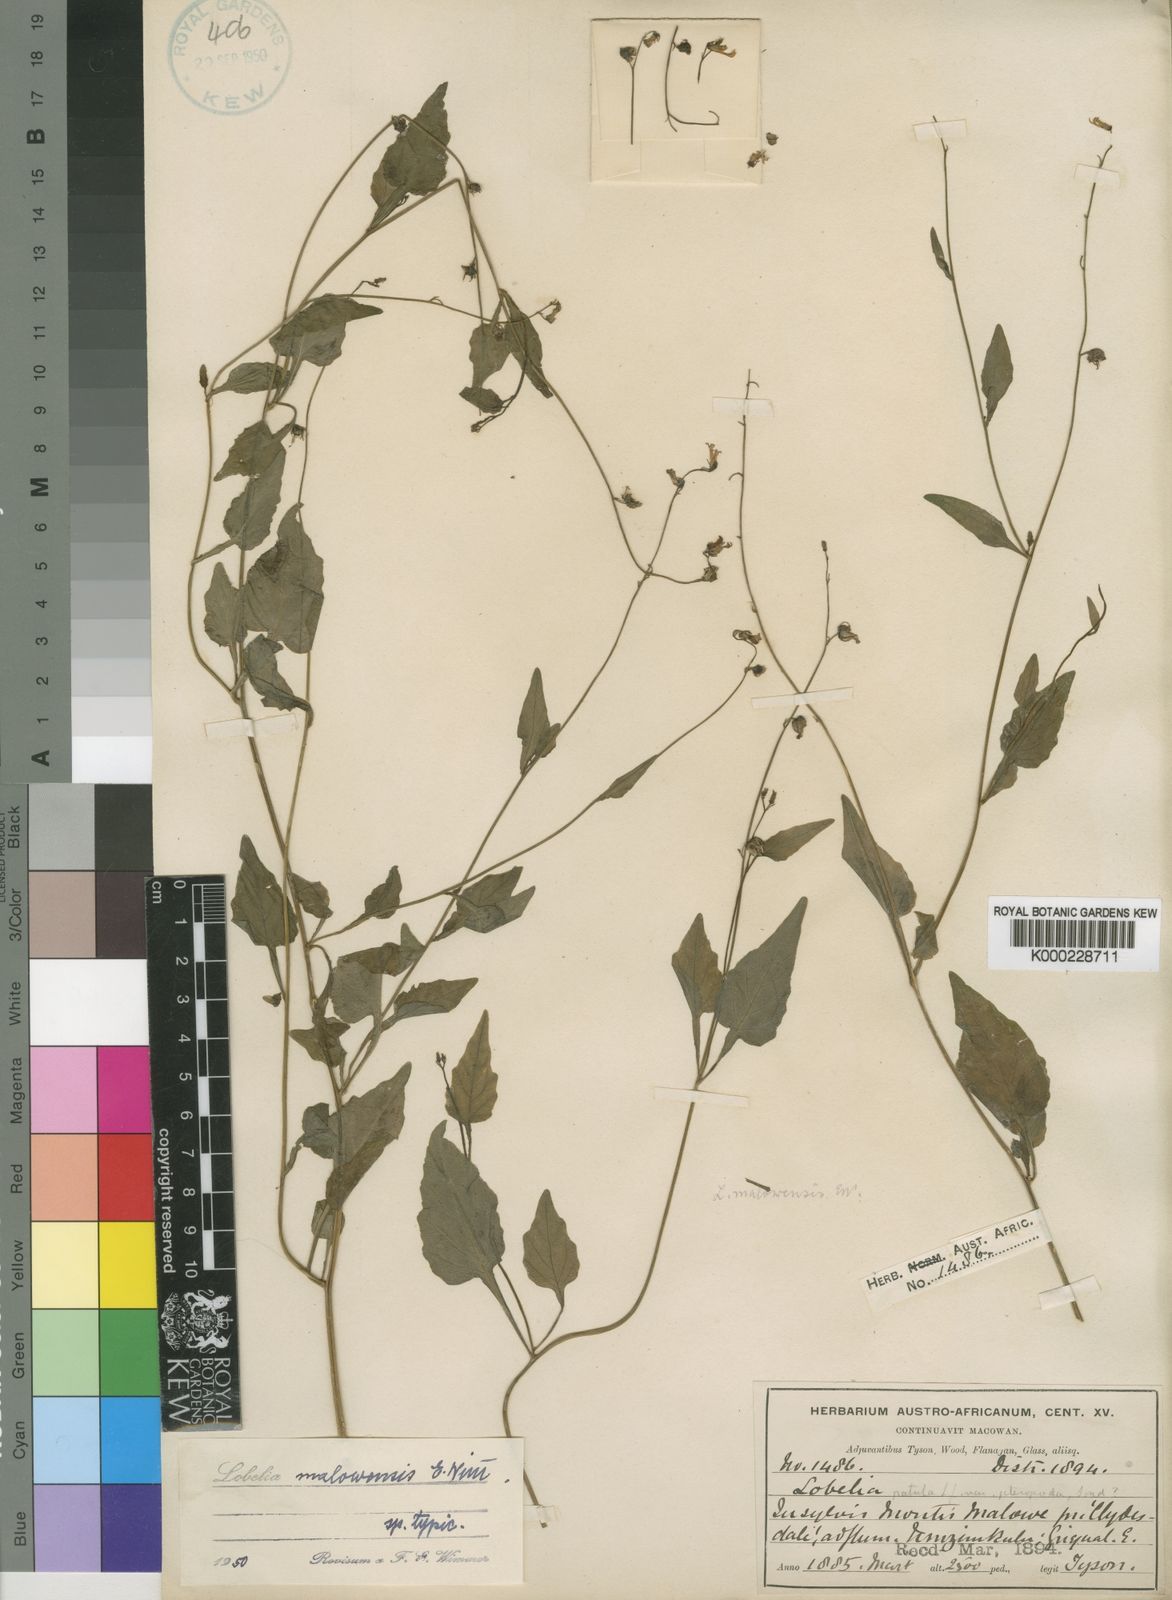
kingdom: Plantae
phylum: Tracheophyta
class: Magnoliopsida
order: Asterales
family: Campanulaceae
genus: Lobelia
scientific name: Lobelia malowensis
